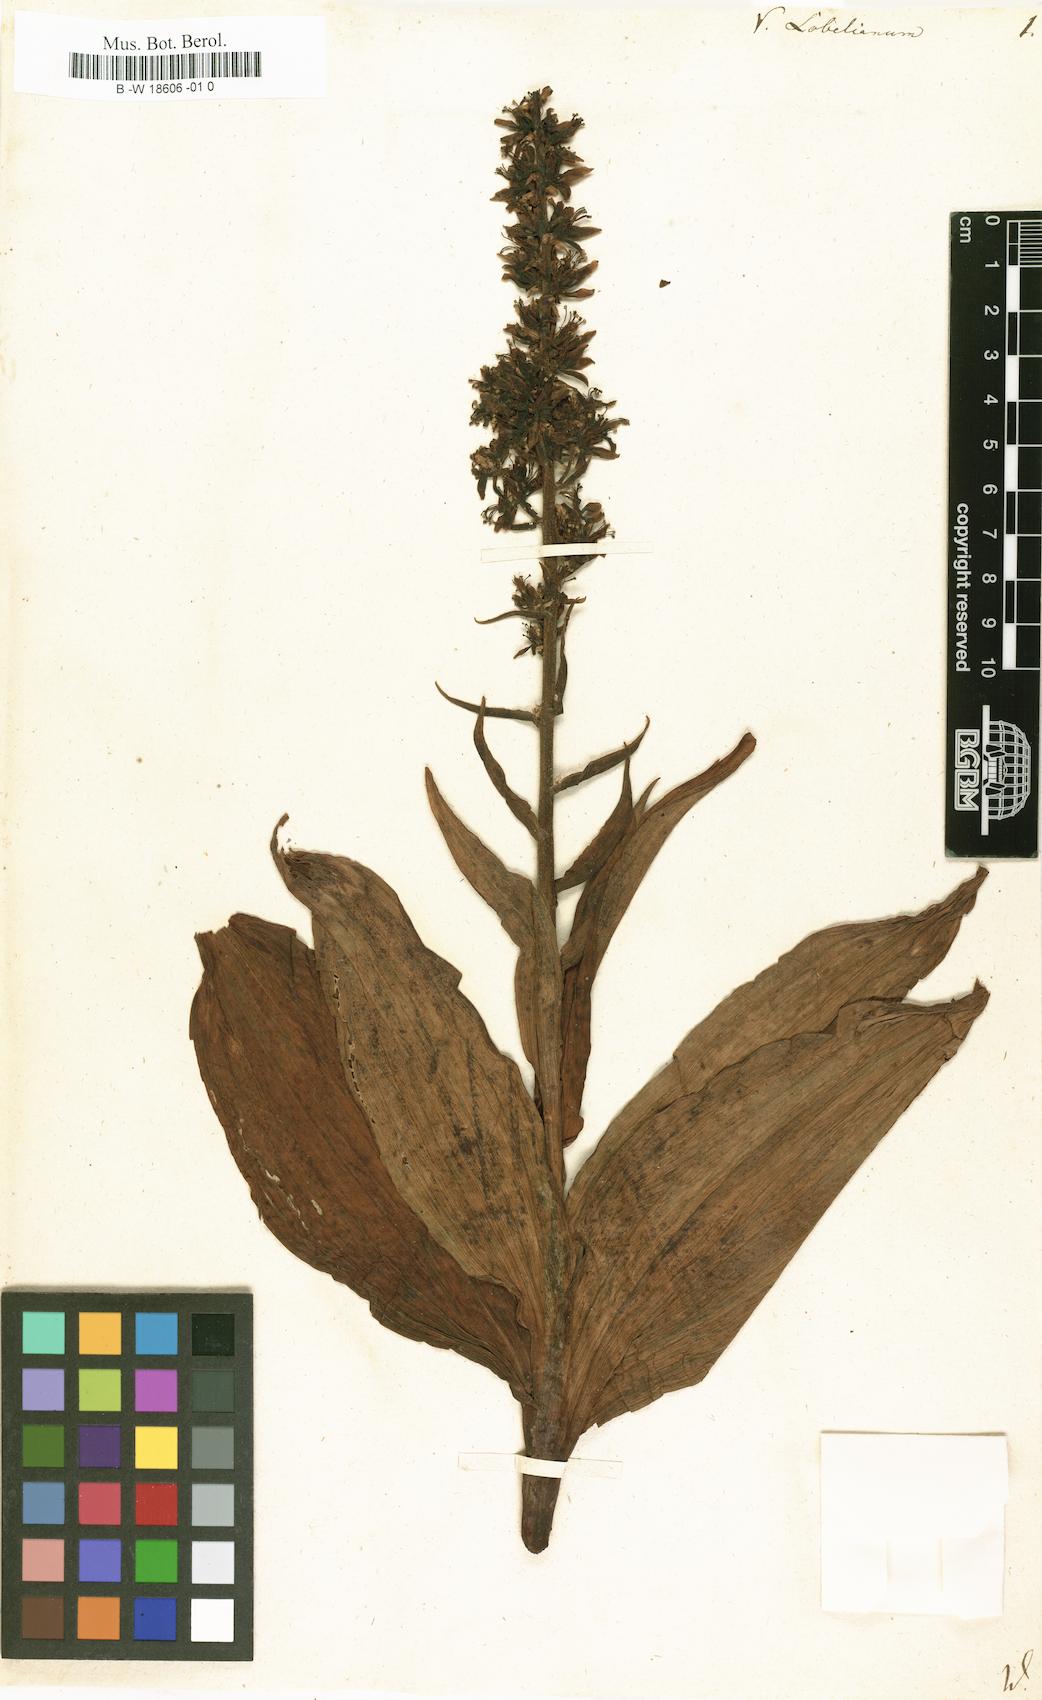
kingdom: Plantae
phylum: Tracheophyta
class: Liliopsida
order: Liliales
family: Melanthiaceae
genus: Veratrum
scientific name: Veratrum lobelianum
